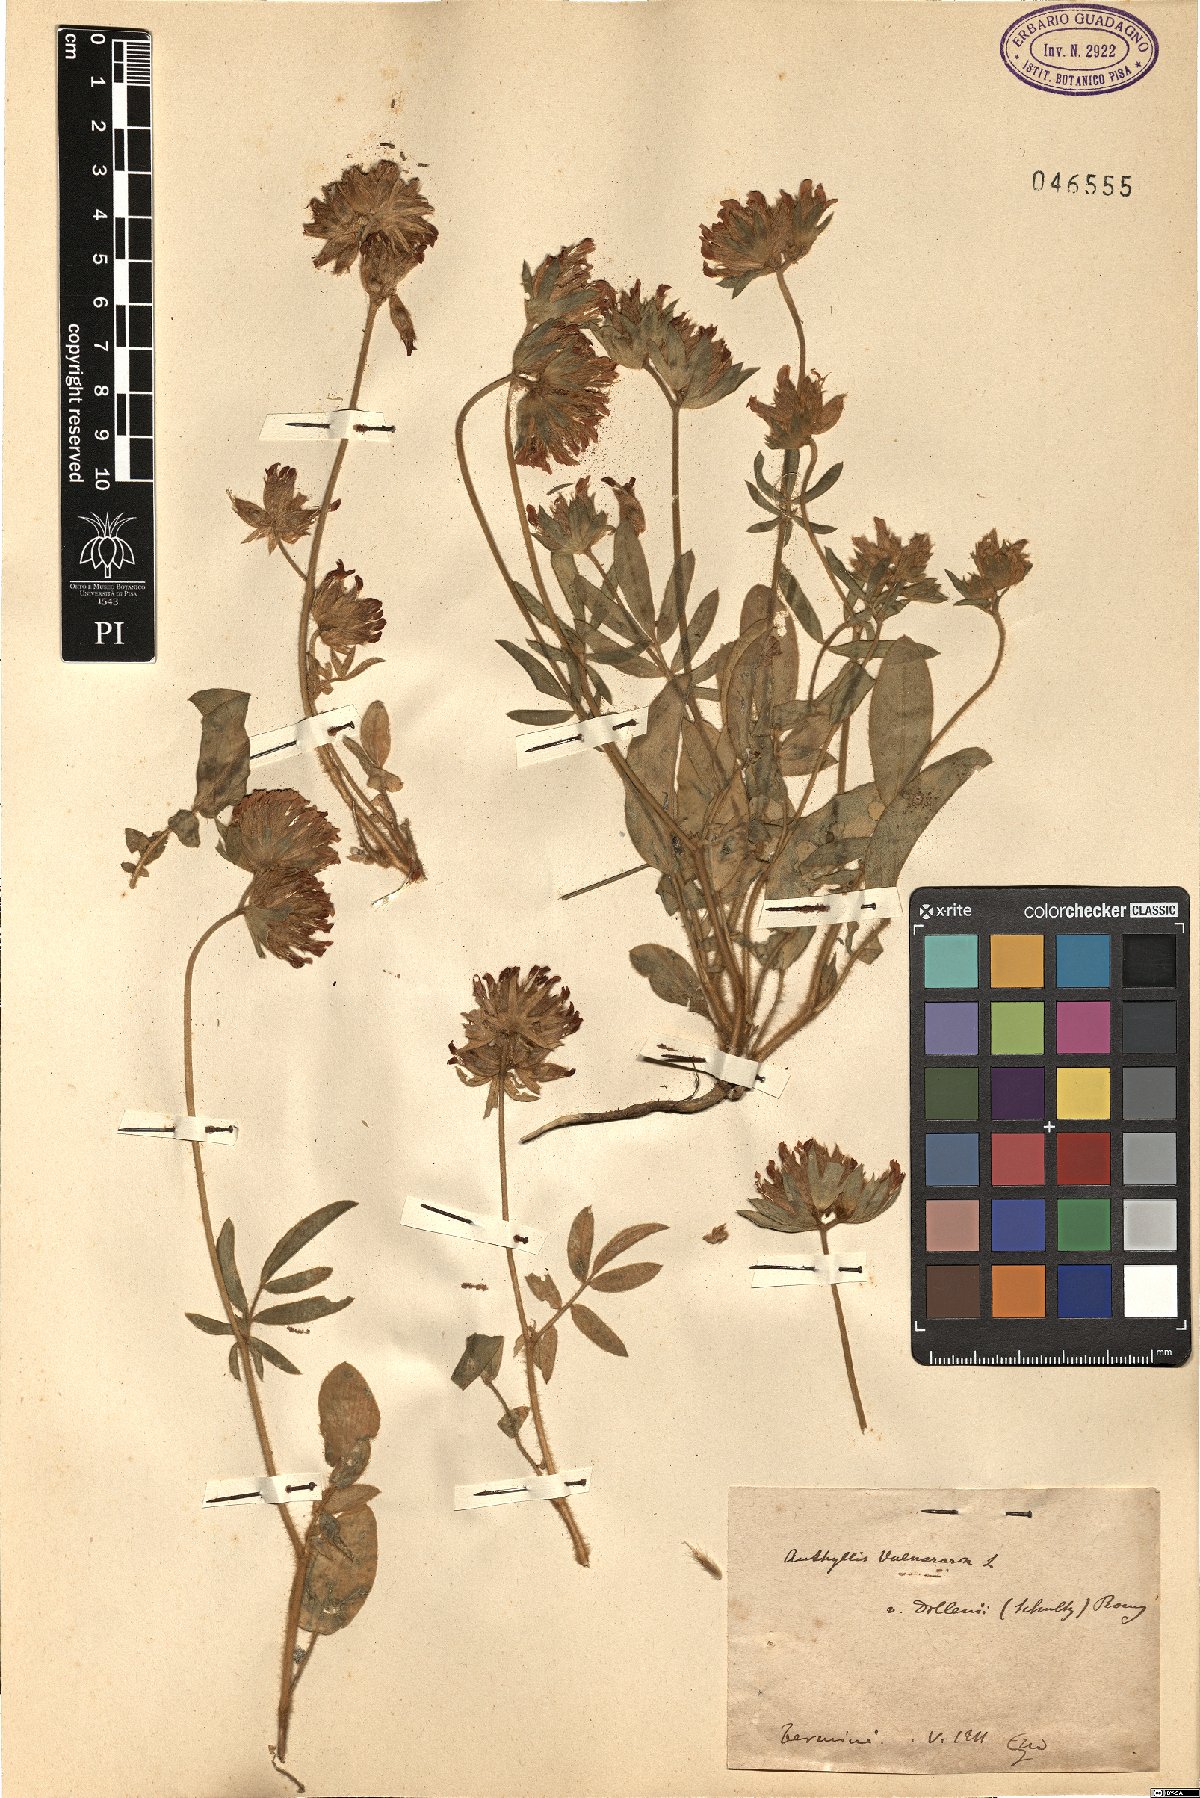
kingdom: Plantae
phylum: Tracheophyta
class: Magnoliopsida
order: Fabales
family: Fabaceae
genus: Anthyllis
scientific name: Anthyllis vulneraria
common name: Kidney vetch
